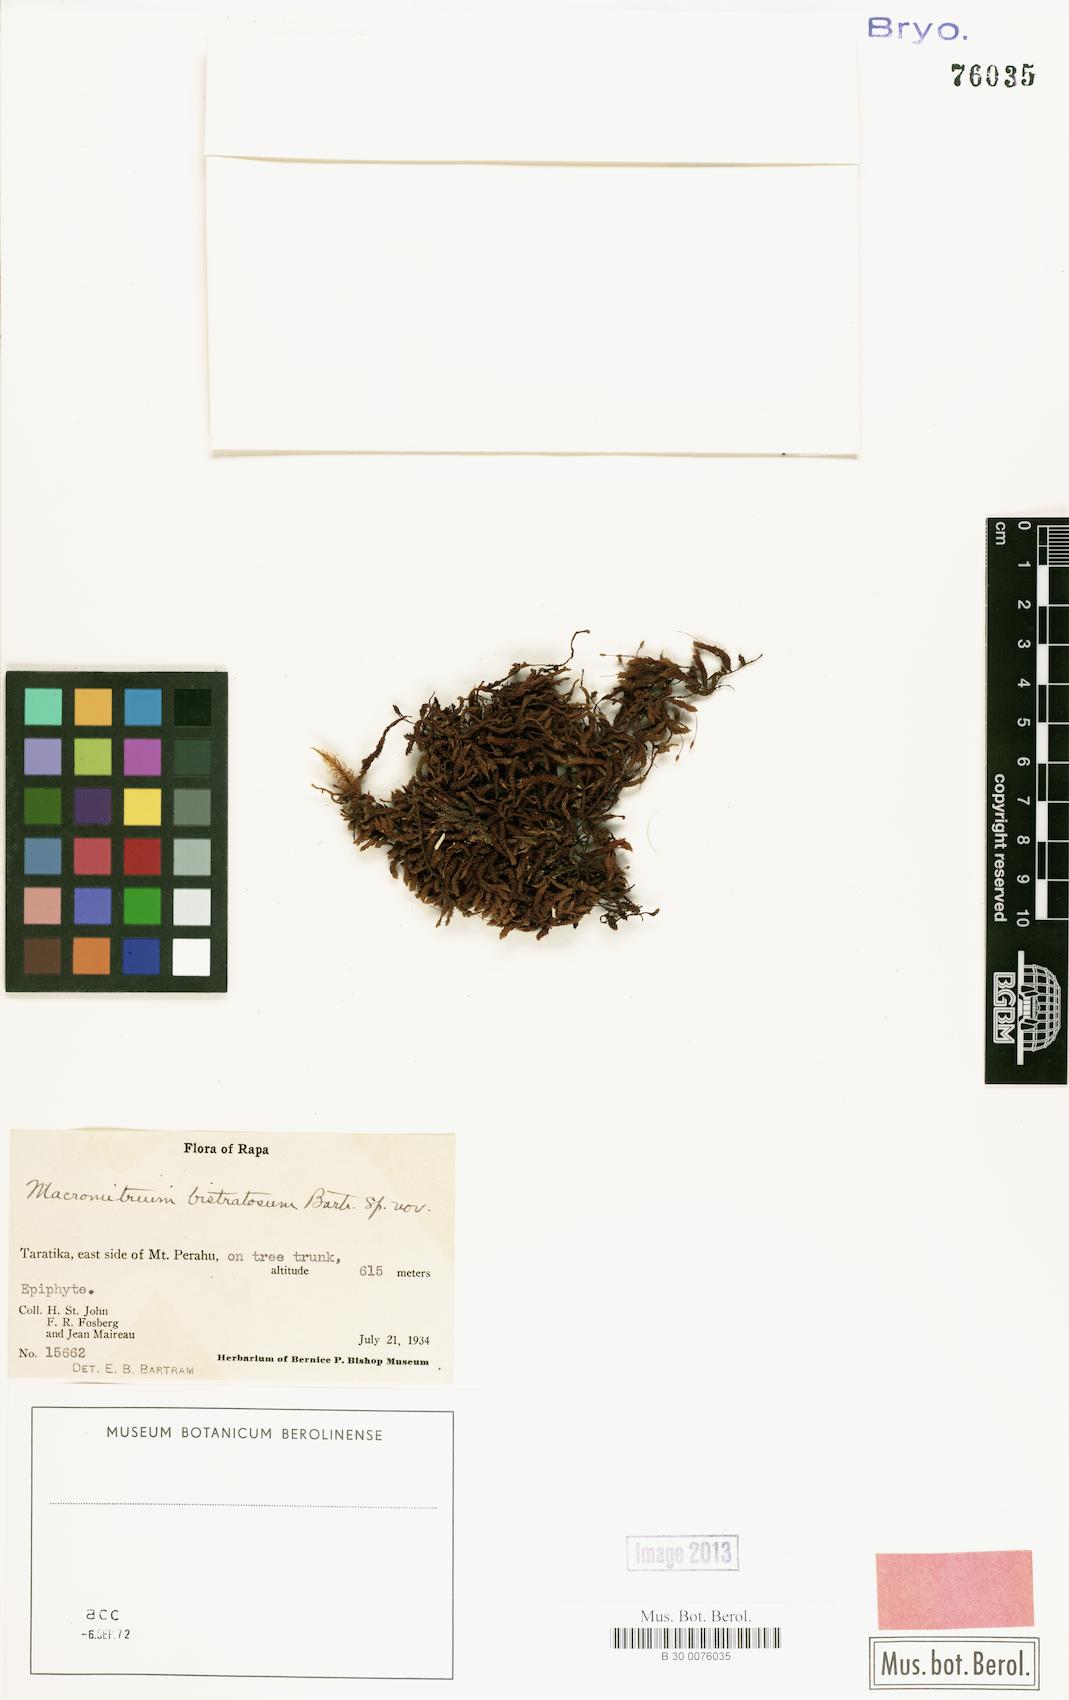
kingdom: Plantae
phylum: Bryophyta
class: Bryopsida
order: Orthotrichales
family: Orthotrichaceae
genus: Macromitrium
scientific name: Macromitrium bistratosum
